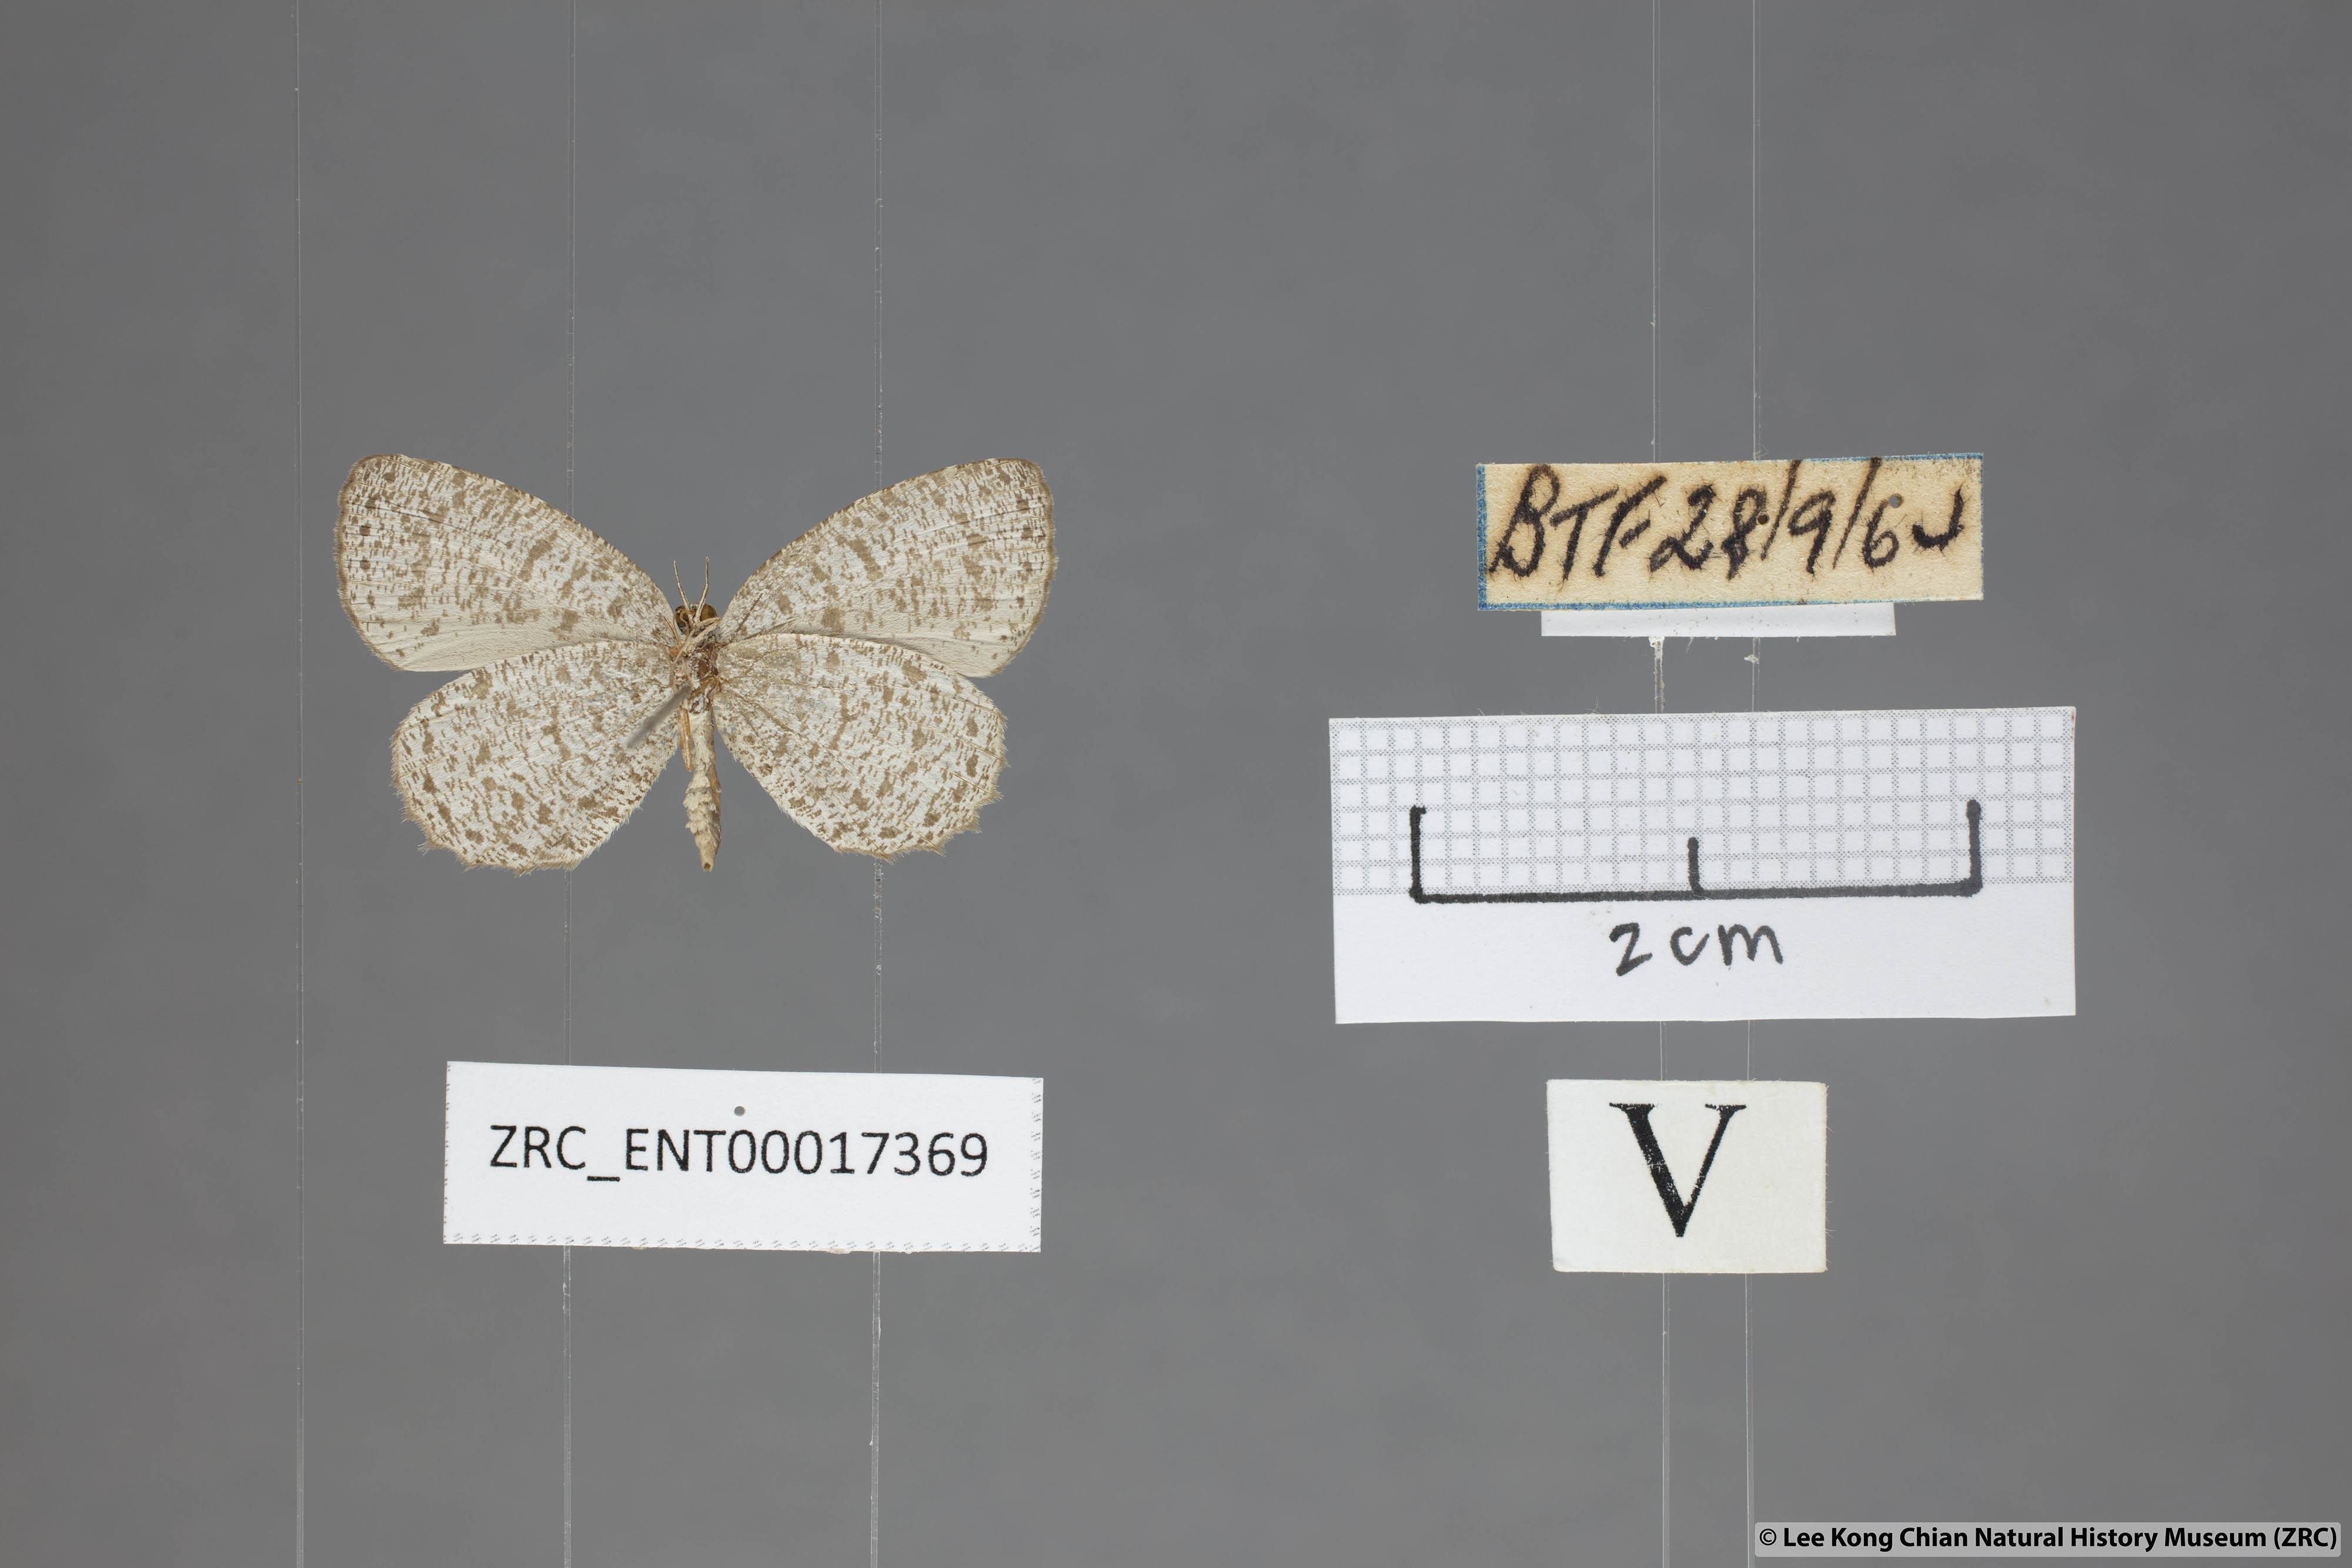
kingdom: Animalia
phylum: Arthropoda
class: Insecta
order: Lepidoptera
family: Lycaenidae
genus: Allotinus
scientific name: Allotinus unicolor
